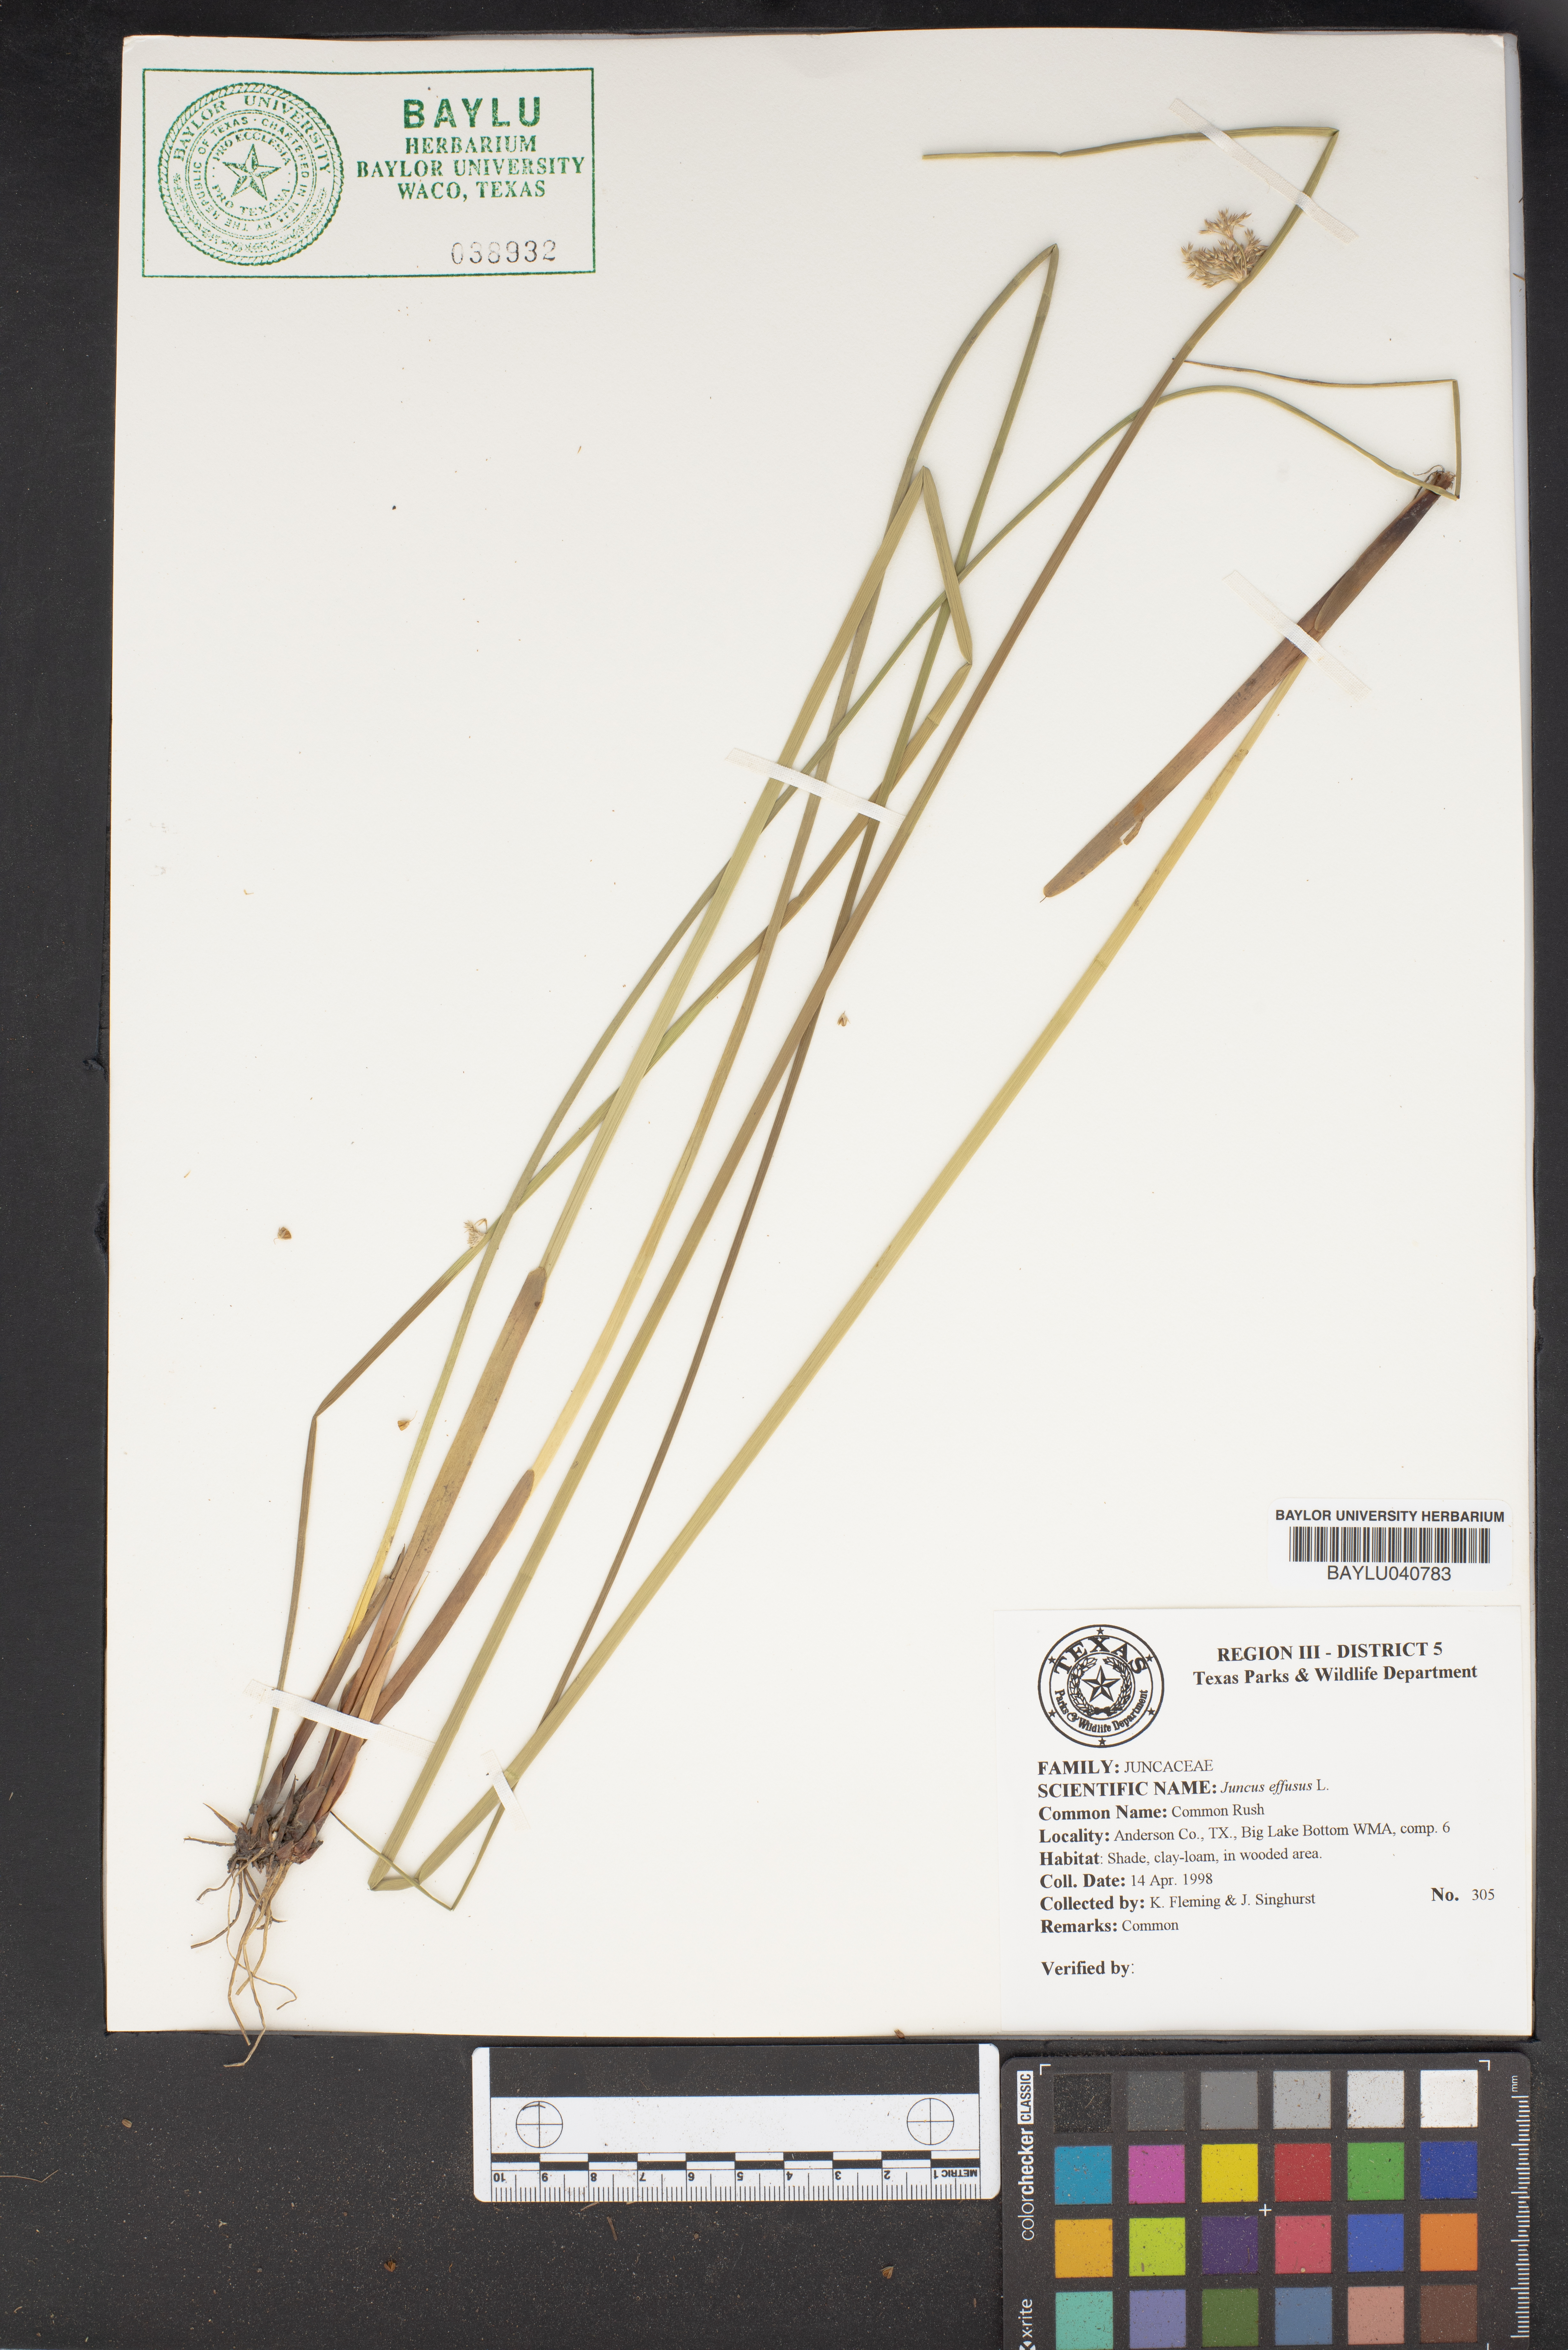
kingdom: Plantae
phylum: Tracheophyta
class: Liliopsida
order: Poales
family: Juncaceae
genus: Juncus
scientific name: Juncus effusus
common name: Soft rush
